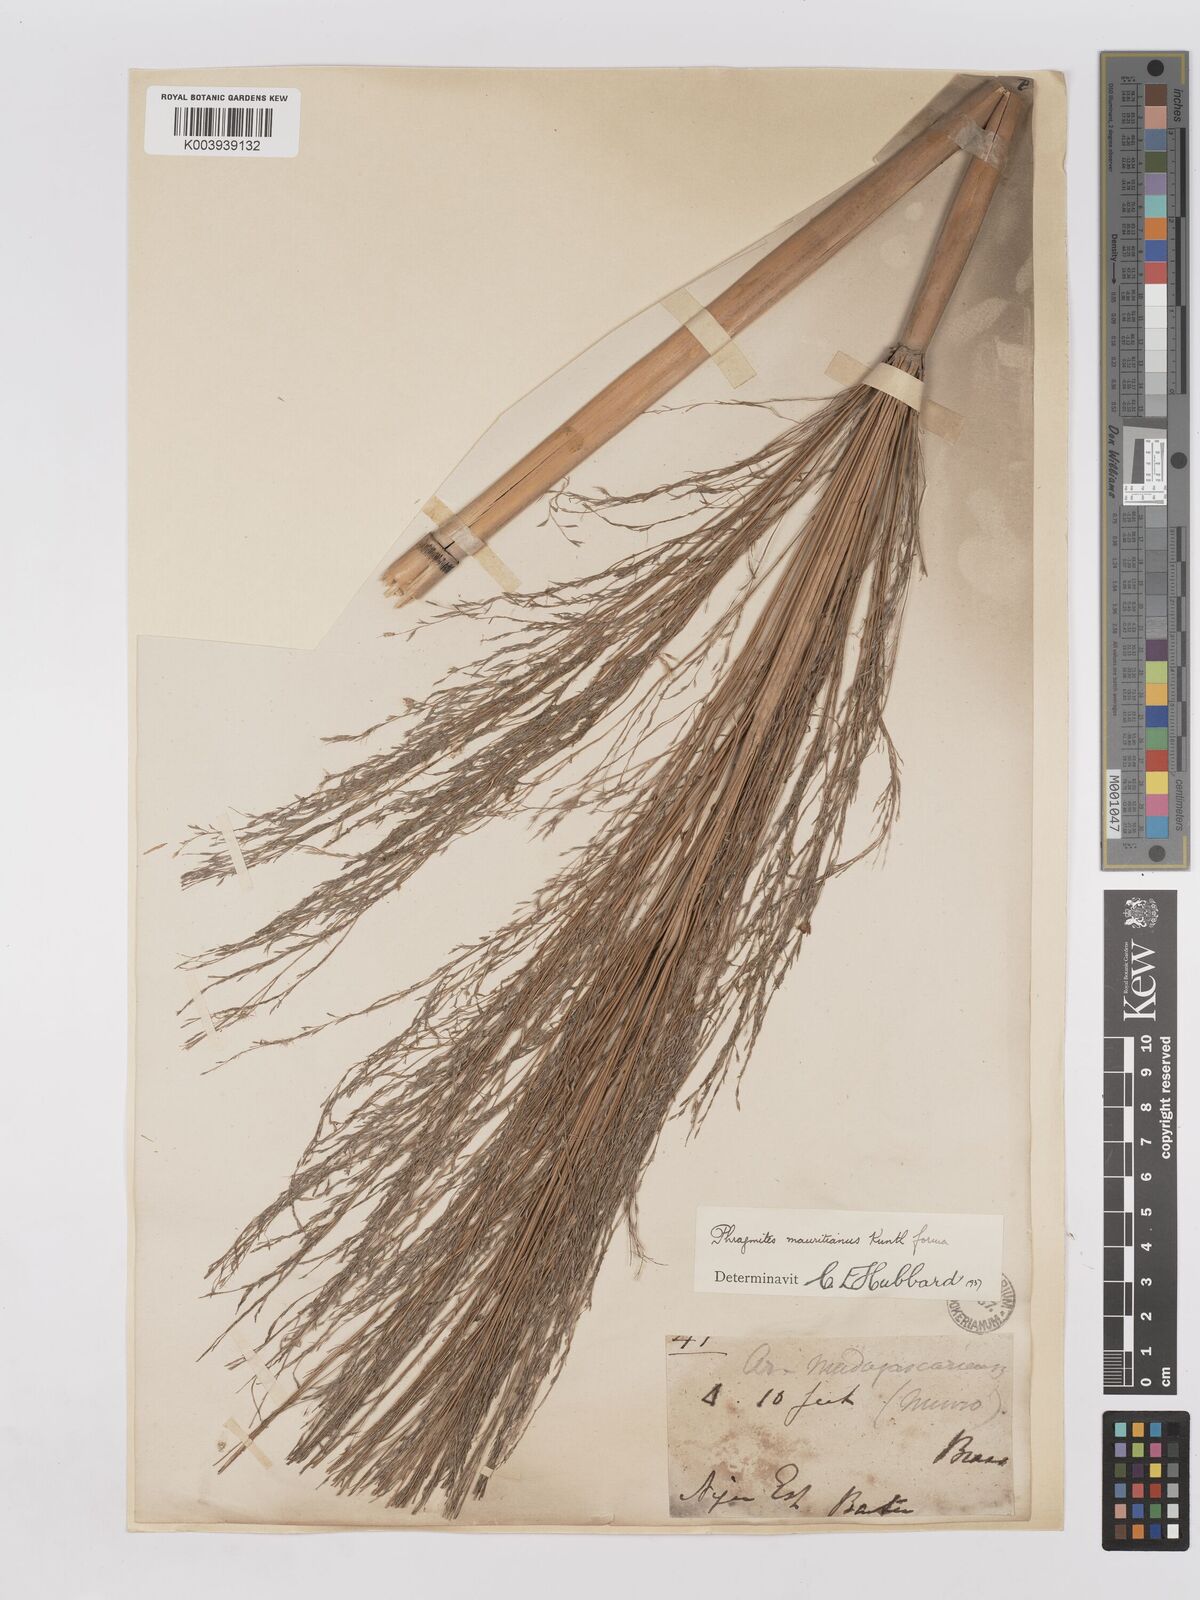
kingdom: Plantae
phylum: Tracheophyta
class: Liliopsida
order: Poales
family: Poaceae
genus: Phragmites
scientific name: Phragmites karka
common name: Tropical reed
